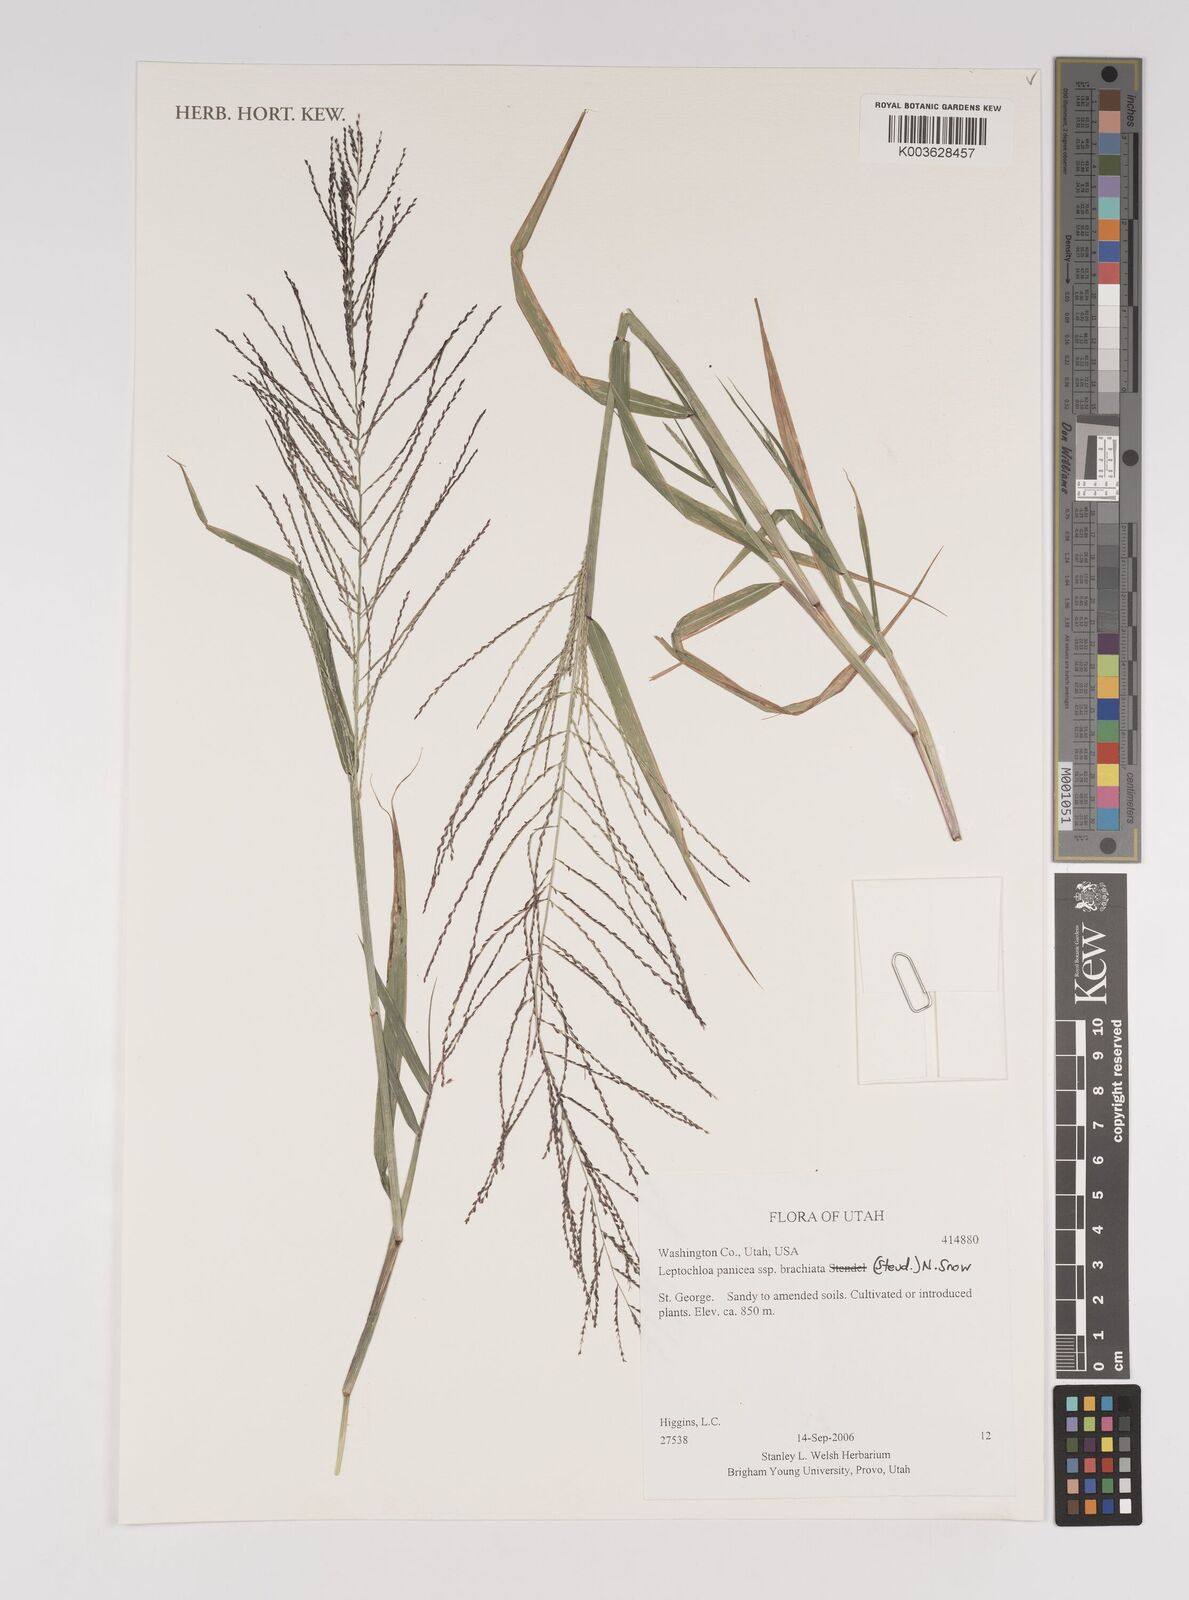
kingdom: Plantae
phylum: Tracheophyta
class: Liliopsida
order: Poales
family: Poaceae
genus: Leptochloa
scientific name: Leptochloa panicea
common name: Mucronate sprangletop
